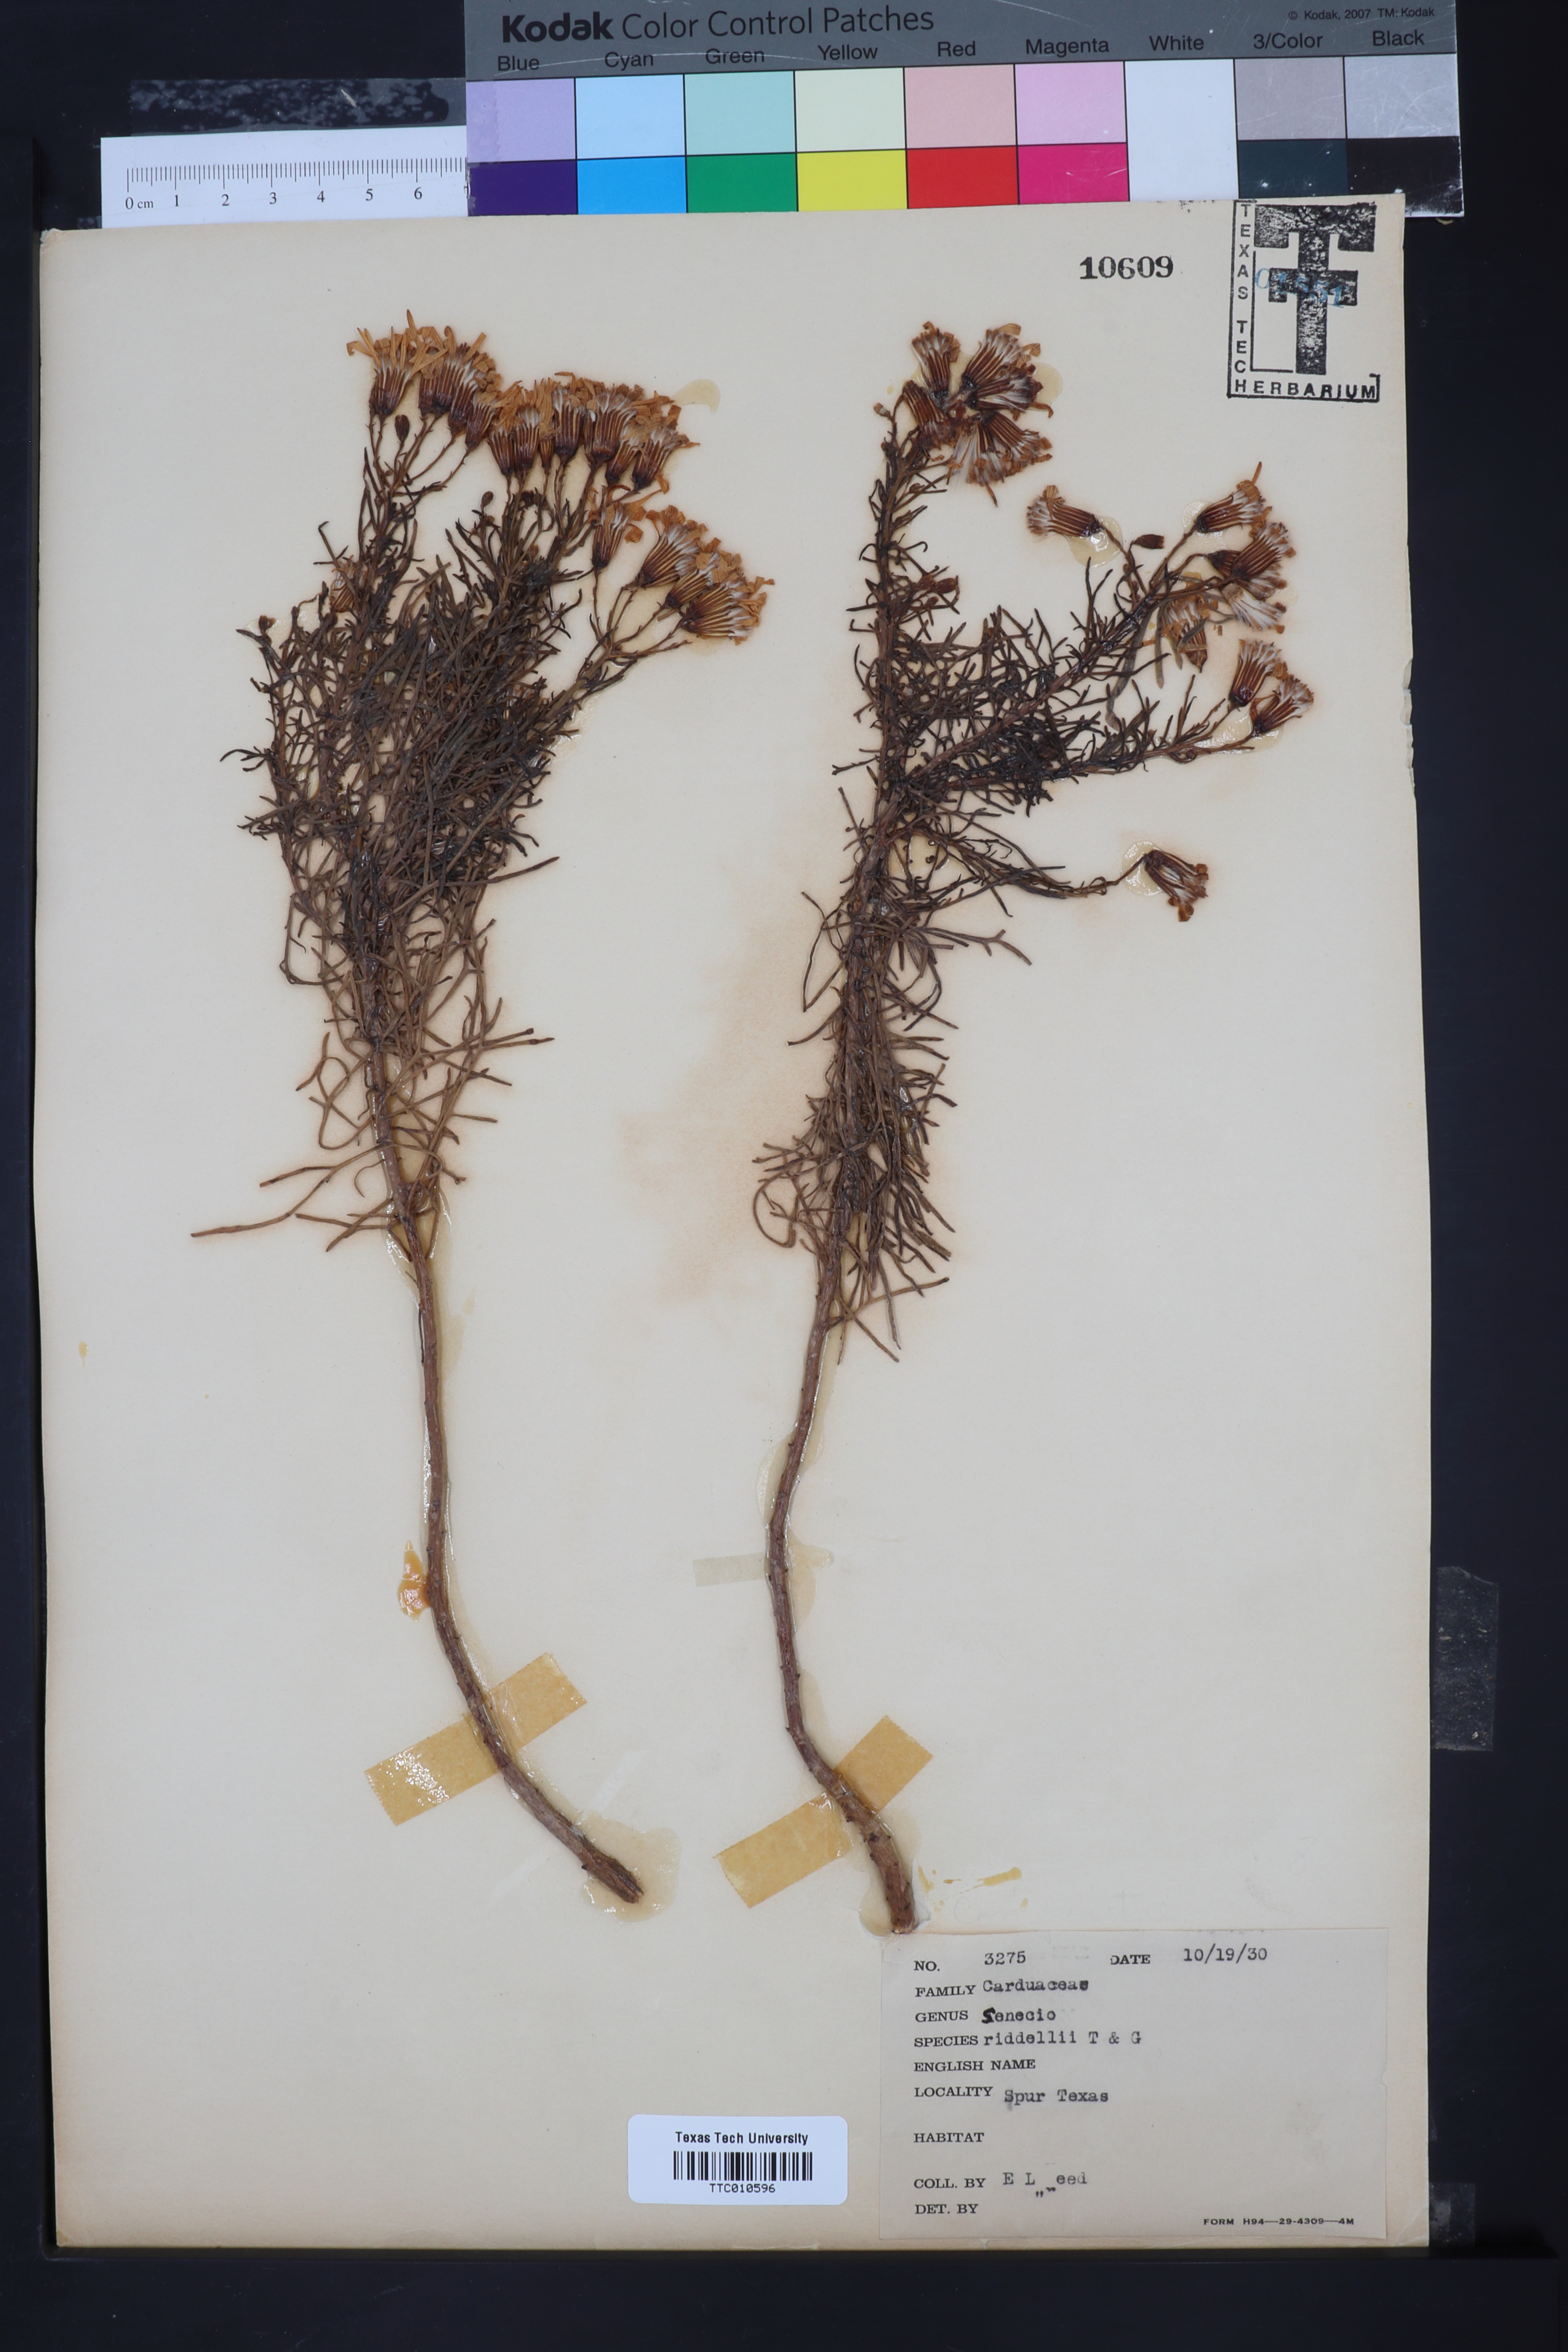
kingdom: Plantae
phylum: Tracheophyta
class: Magnoliopsida
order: Asterales
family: Asteraceae
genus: Senecio
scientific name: Senecio riddellii
